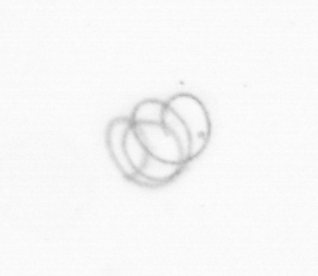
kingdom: Chromista
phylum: Ochrophyta
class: Bacillariophyceae
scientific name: Bacillariophyceae
